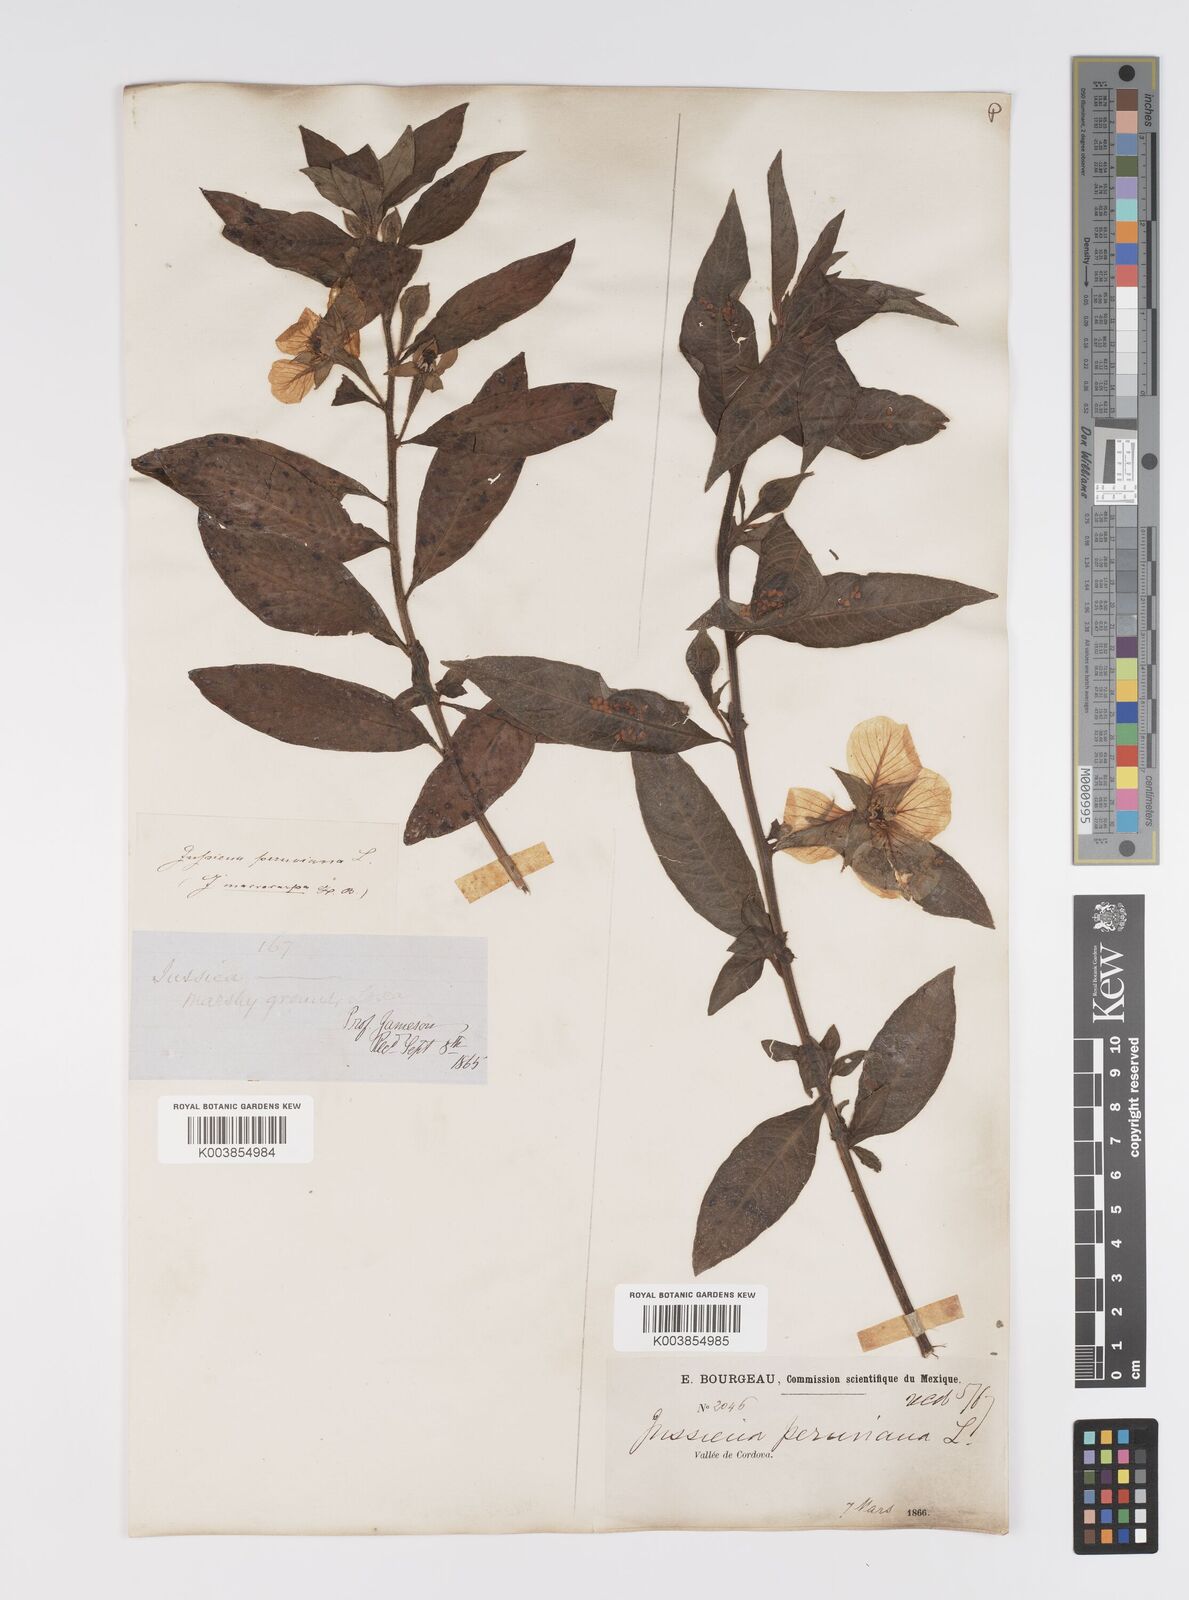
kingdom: Plantae
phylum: Tracheophyta
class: Magnoliopsida
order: Myrtales
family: Onagraceae
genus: Ludwigia
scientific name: Ludwigia peruviana
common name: Peruvian primrose-willow
